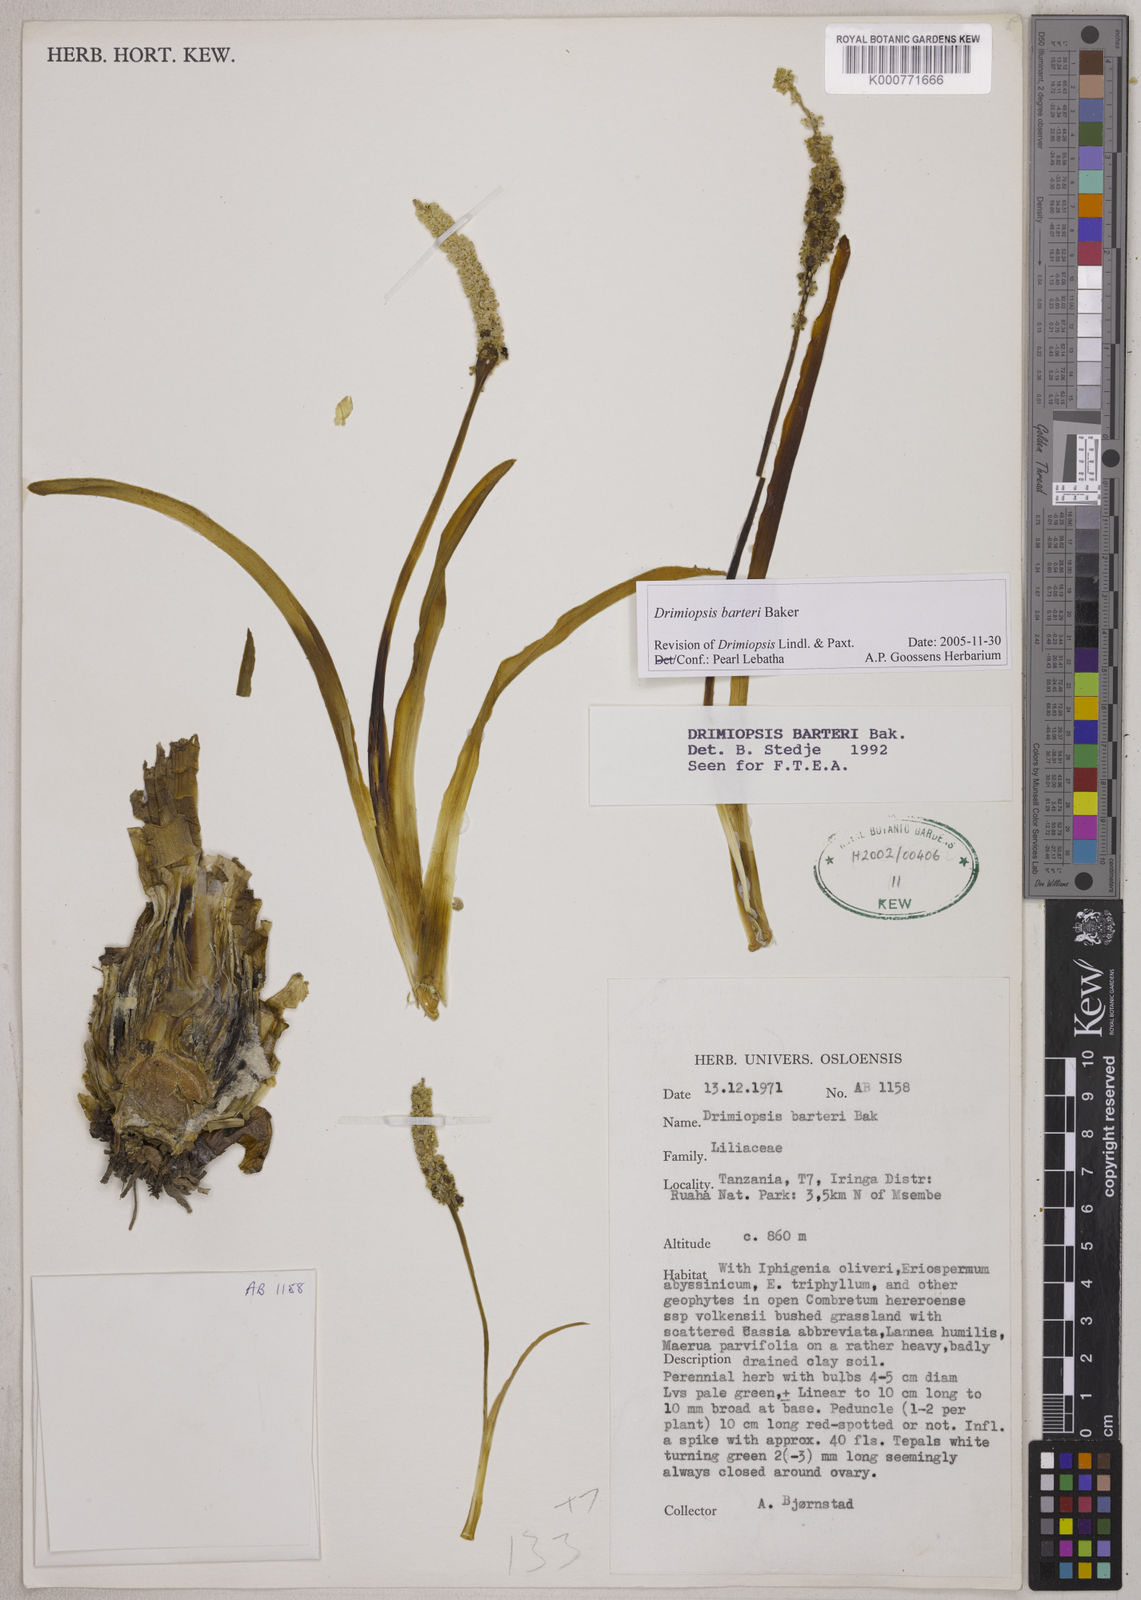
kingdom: Plantae
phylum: Tracheophyta
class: Liliopsida
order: Asparagales
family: Asparagaceae
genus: Drimiopsis
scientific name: Drimiopsis barteri
